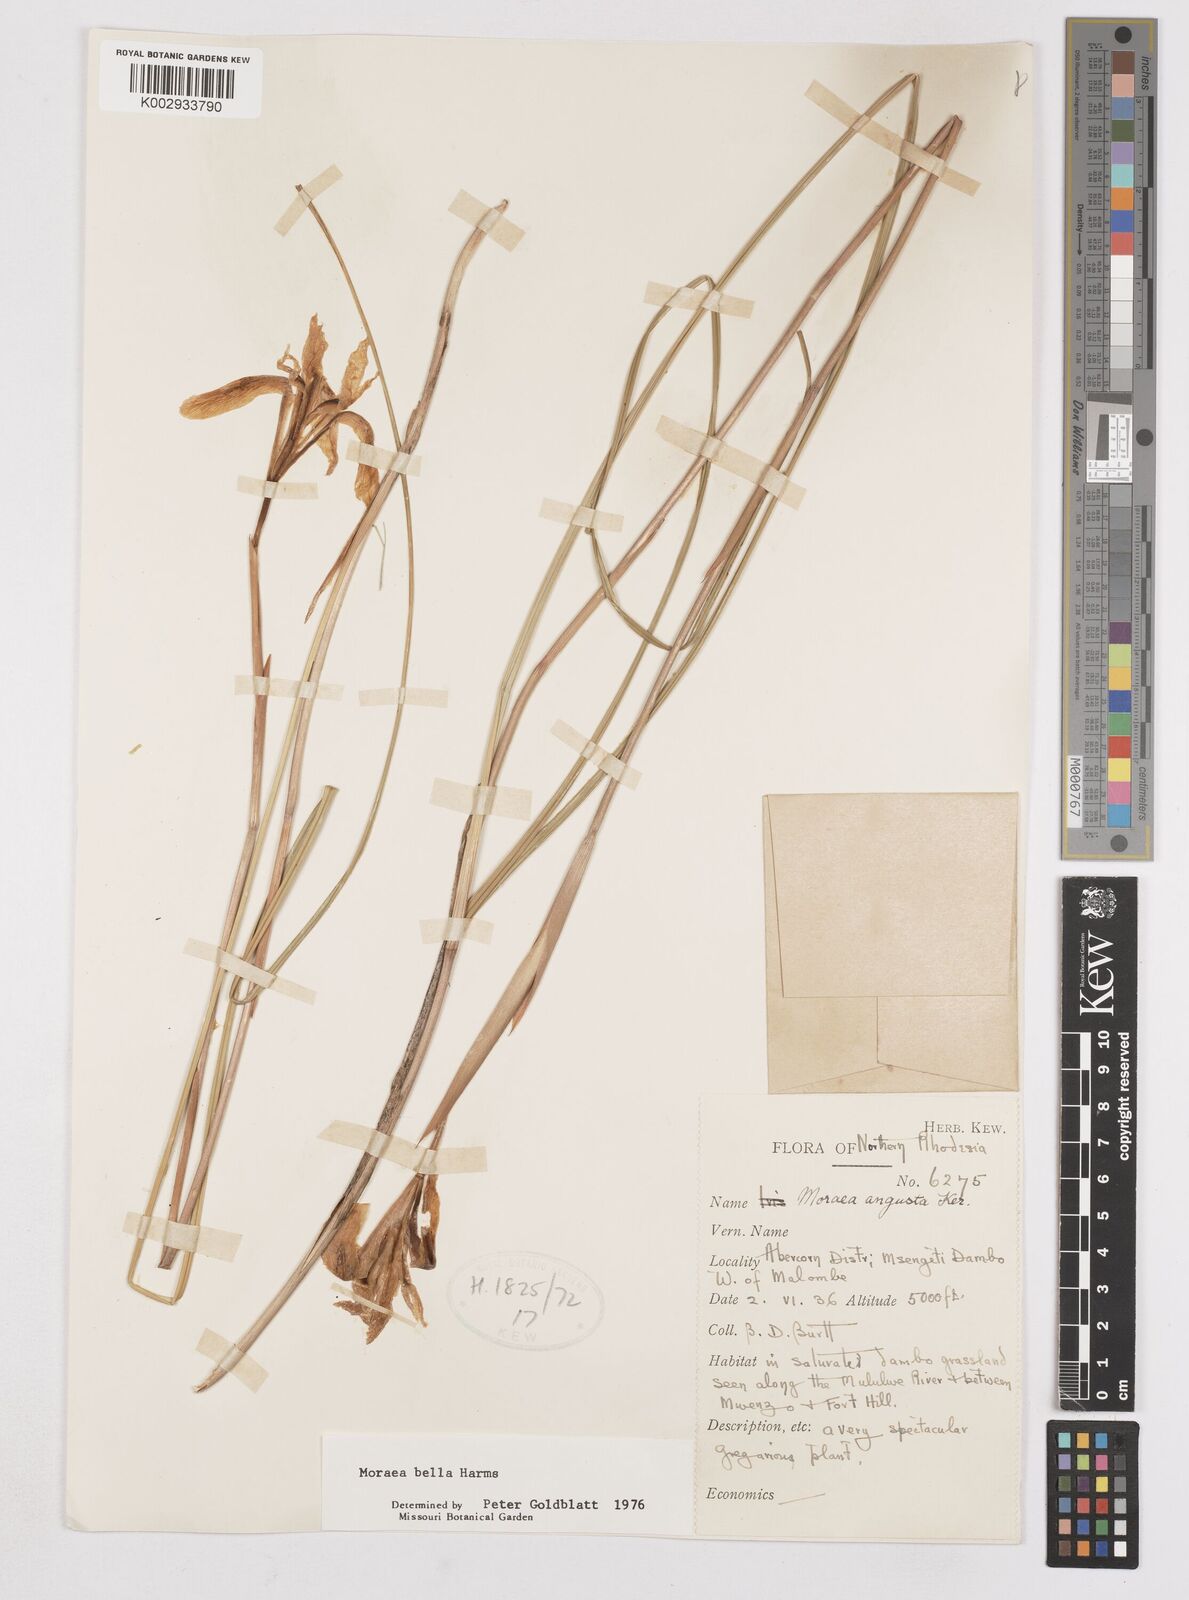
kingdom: Plantae
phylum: Tracheophyta
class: Liliopsida
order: Asparagales
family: Iridaceae
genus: Moraea
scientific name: Moraea bella
